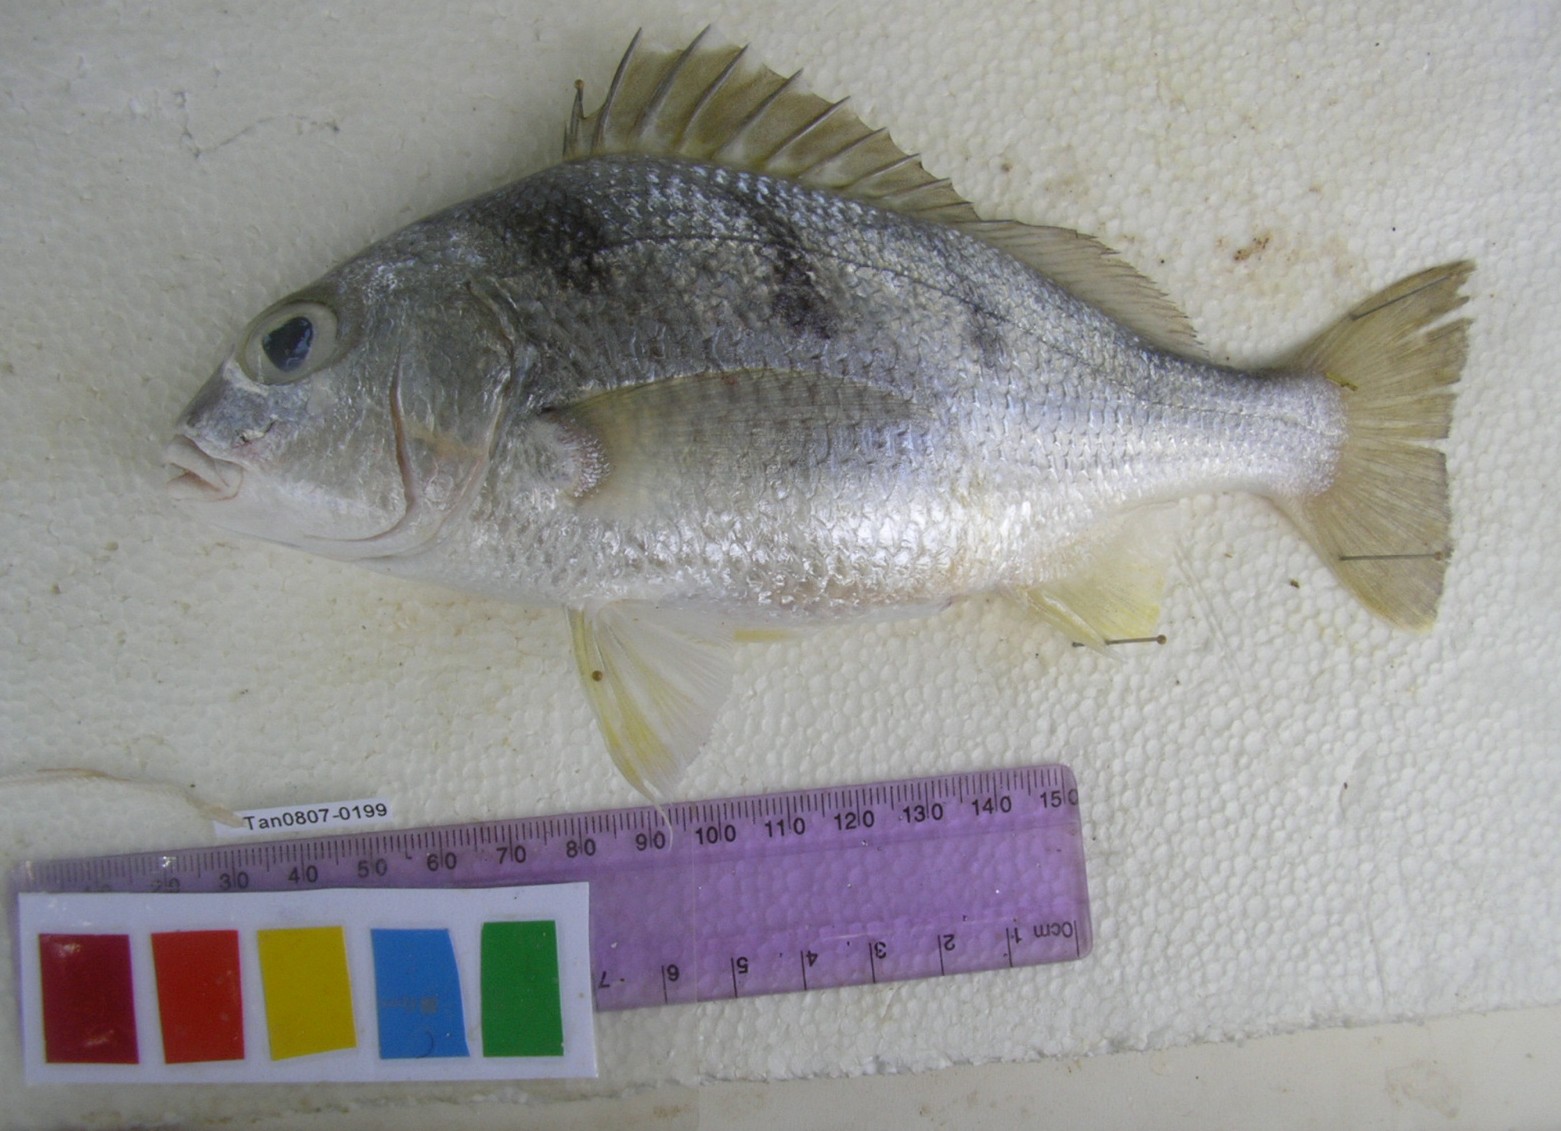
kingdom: Animalia
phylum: Chordata
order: Perciformes
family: Haemulidae
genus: Pomadasys
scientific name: Pomadasys maculatus
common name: Saddle grunt
